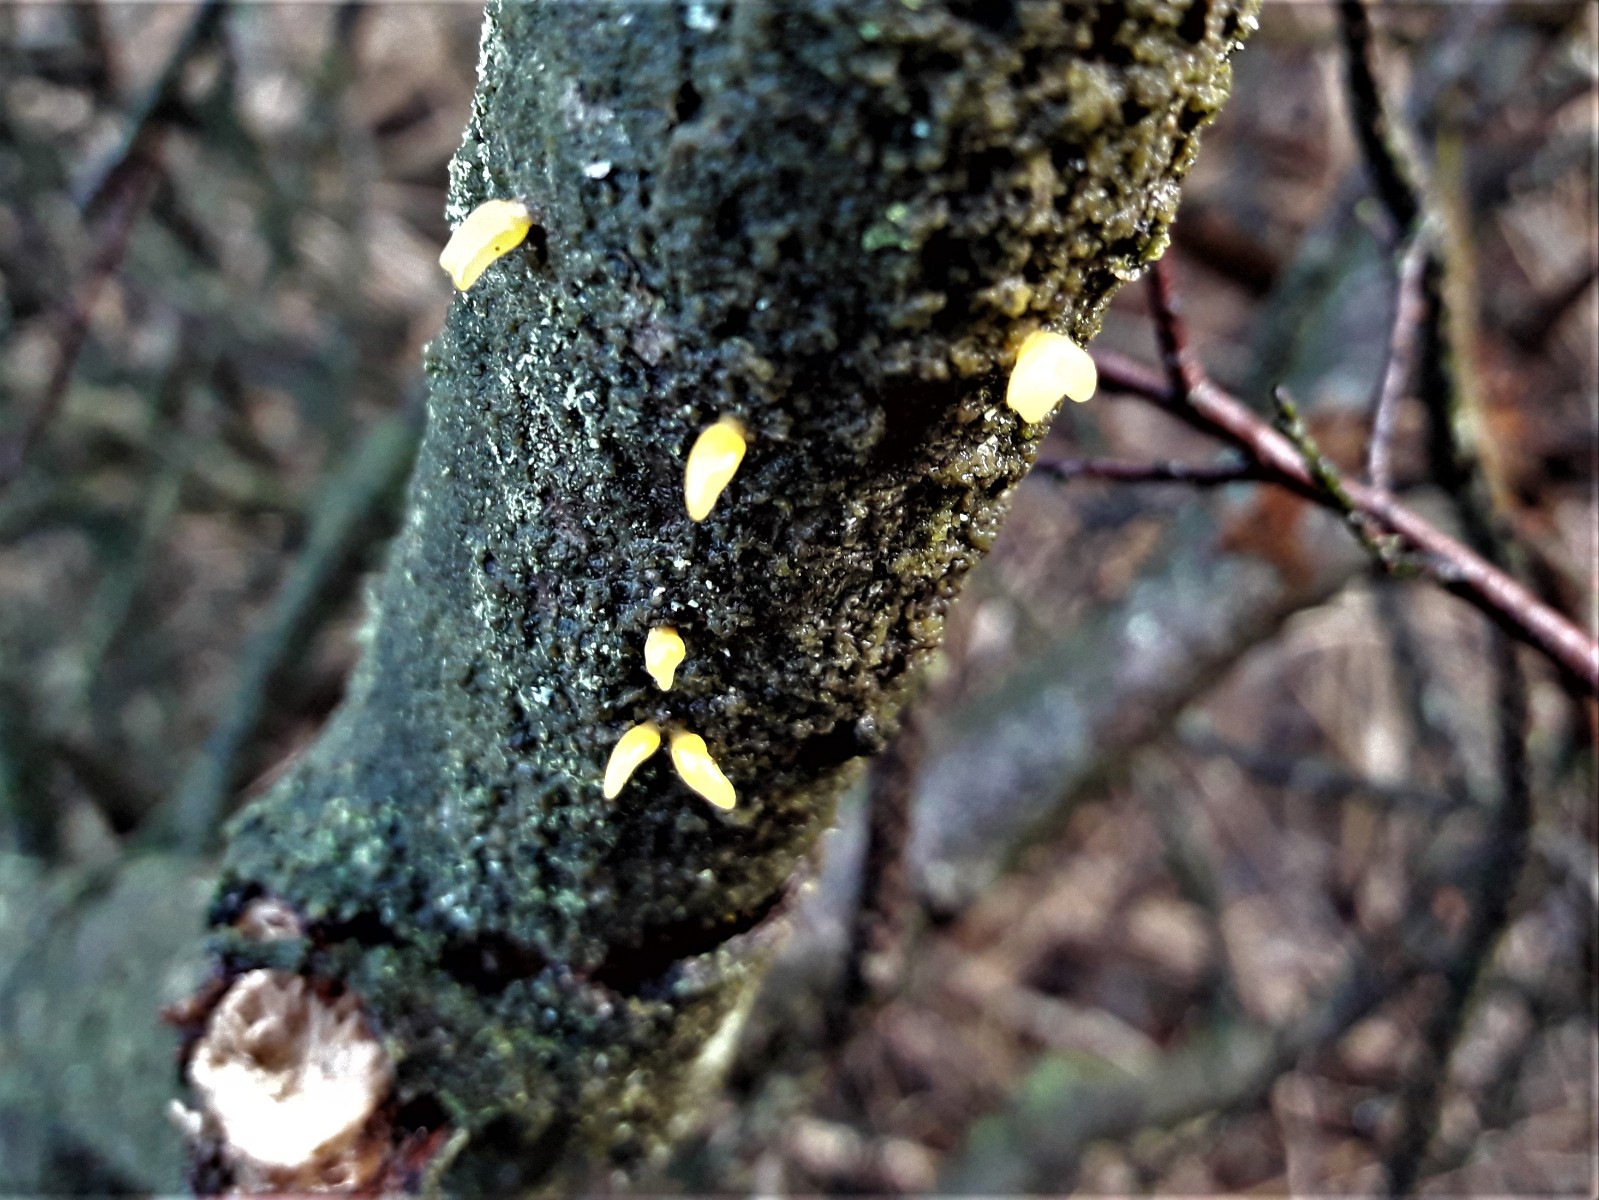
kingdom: Fungi
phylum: Basidiomycota
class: Dacrymycetes
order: Dacrymycetales
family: Dacrymycetaceae
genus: Calocera
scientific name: Calocera
